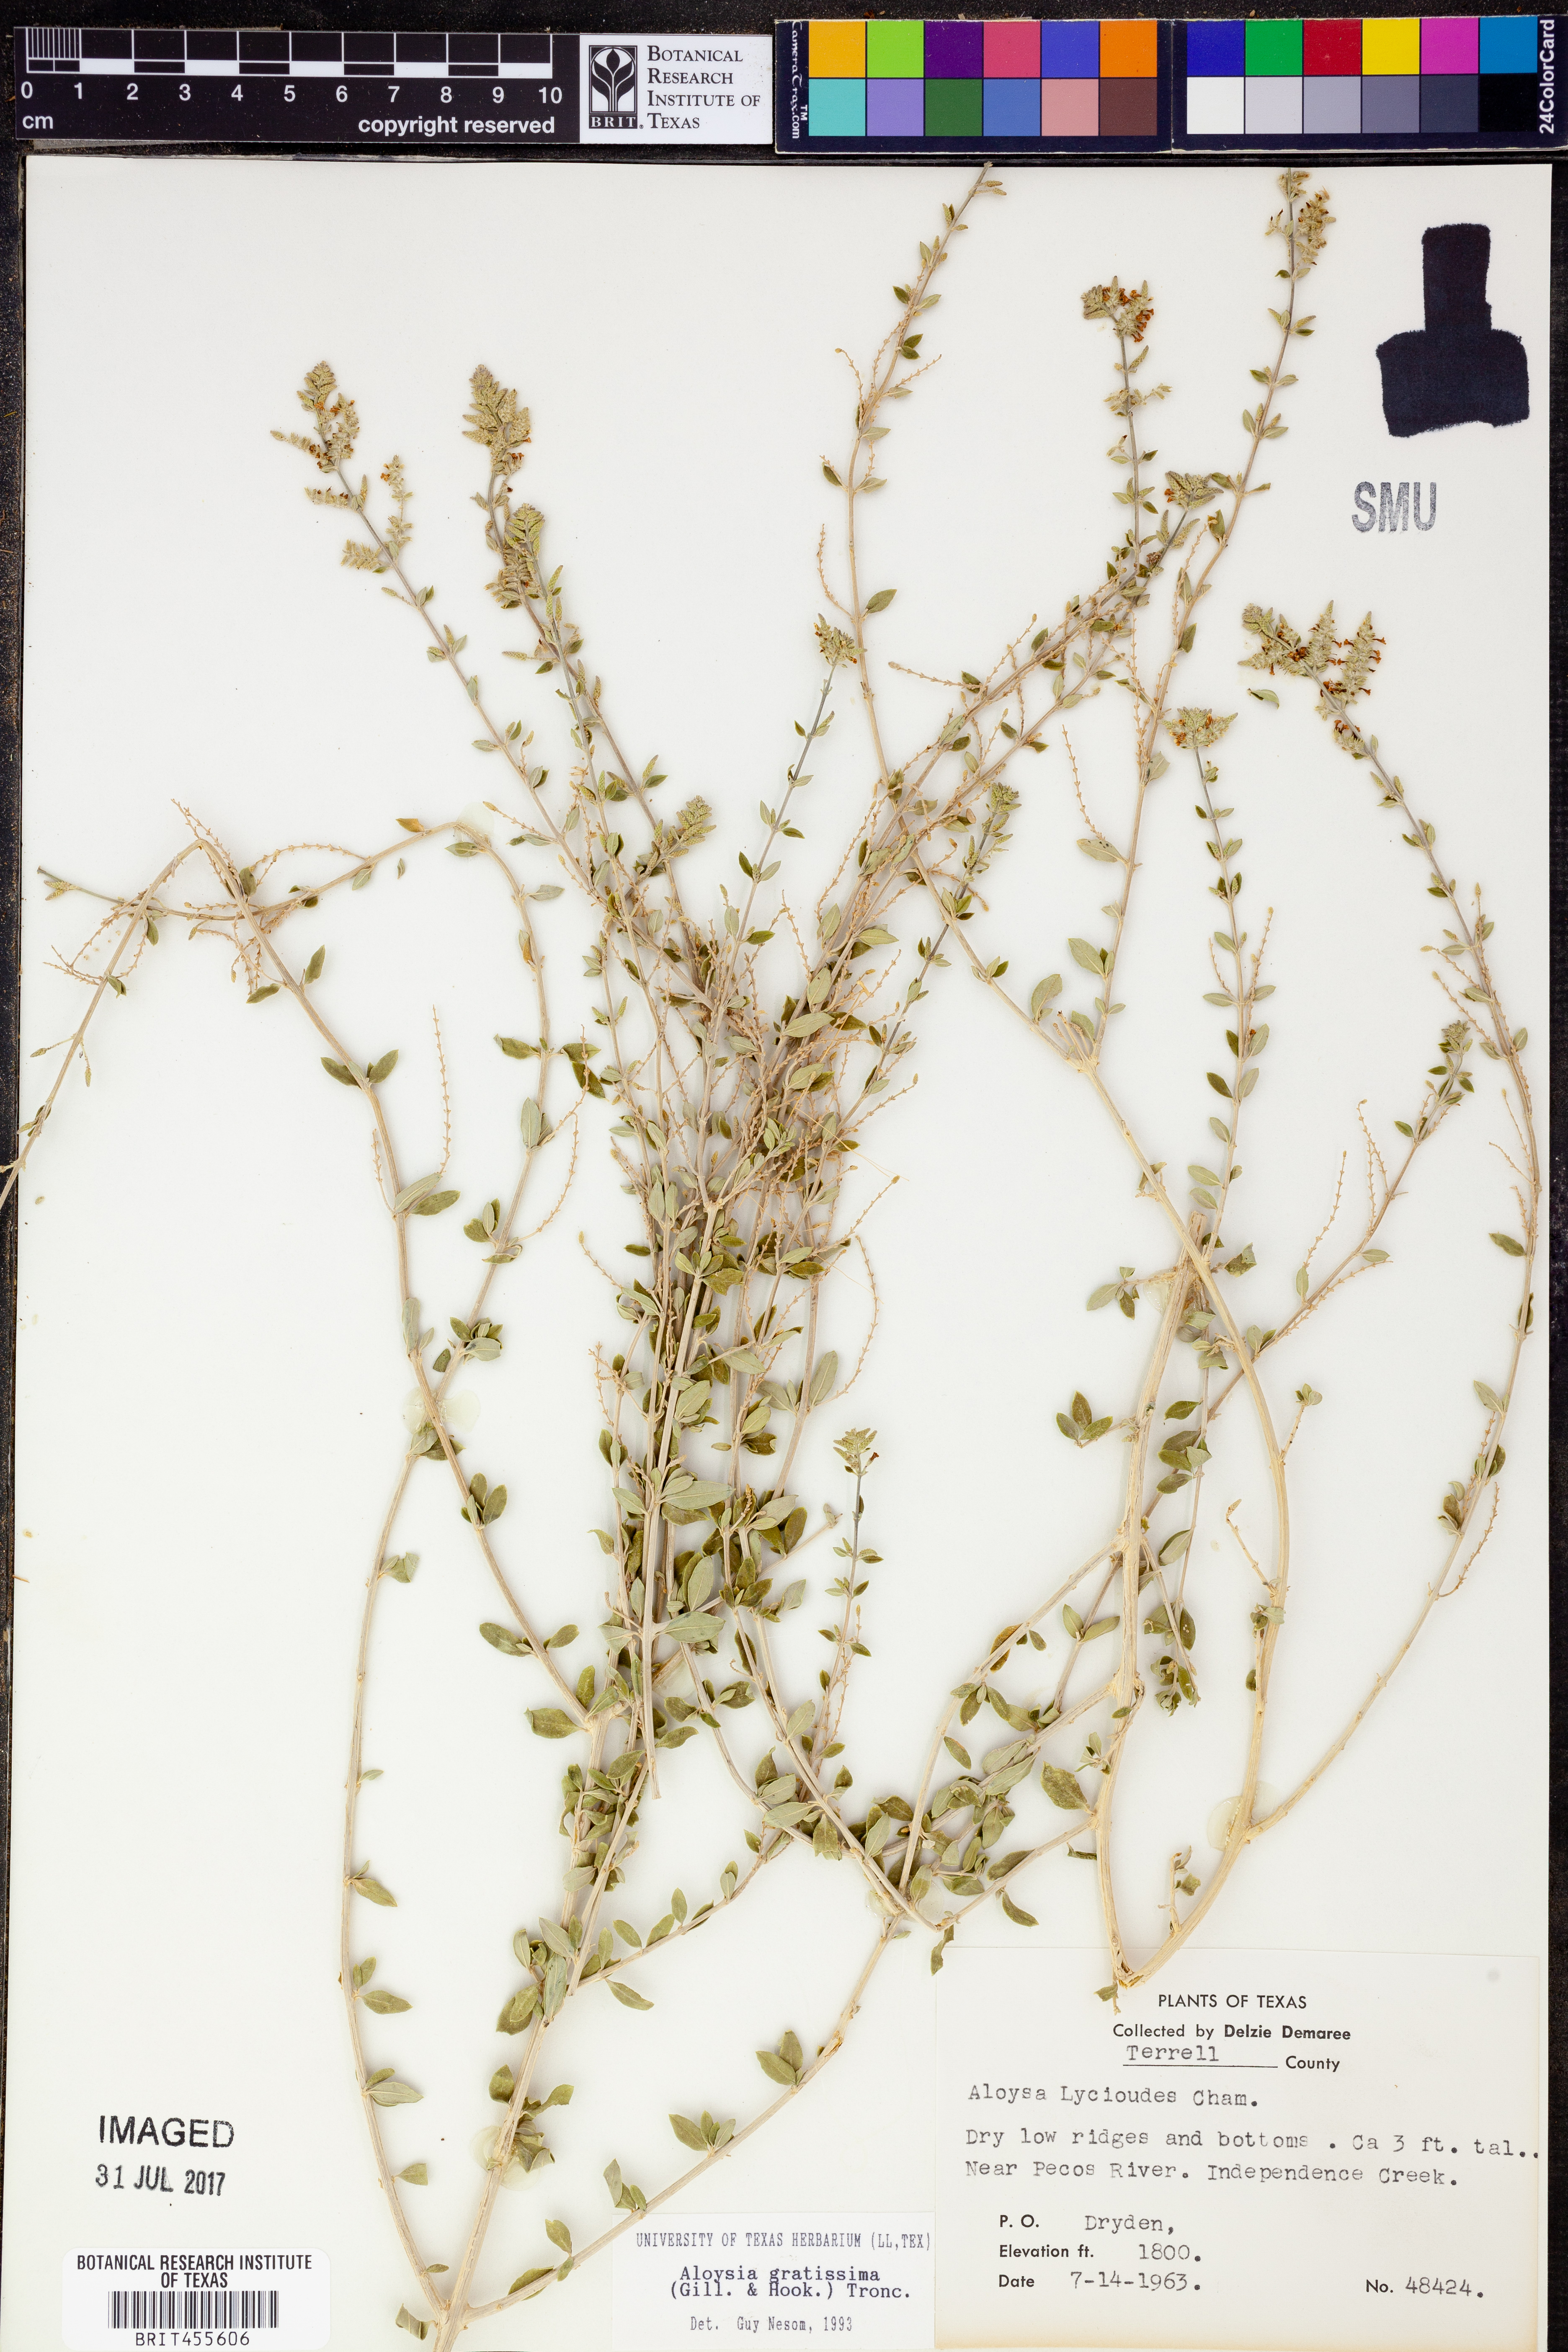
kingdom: Plantae
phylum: Tracheophyta
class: Magnoliopsida
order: Lamiales
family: Verbenaceae
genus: Aloysia
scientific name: Aloysia gratissima
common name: Common bee-brush
